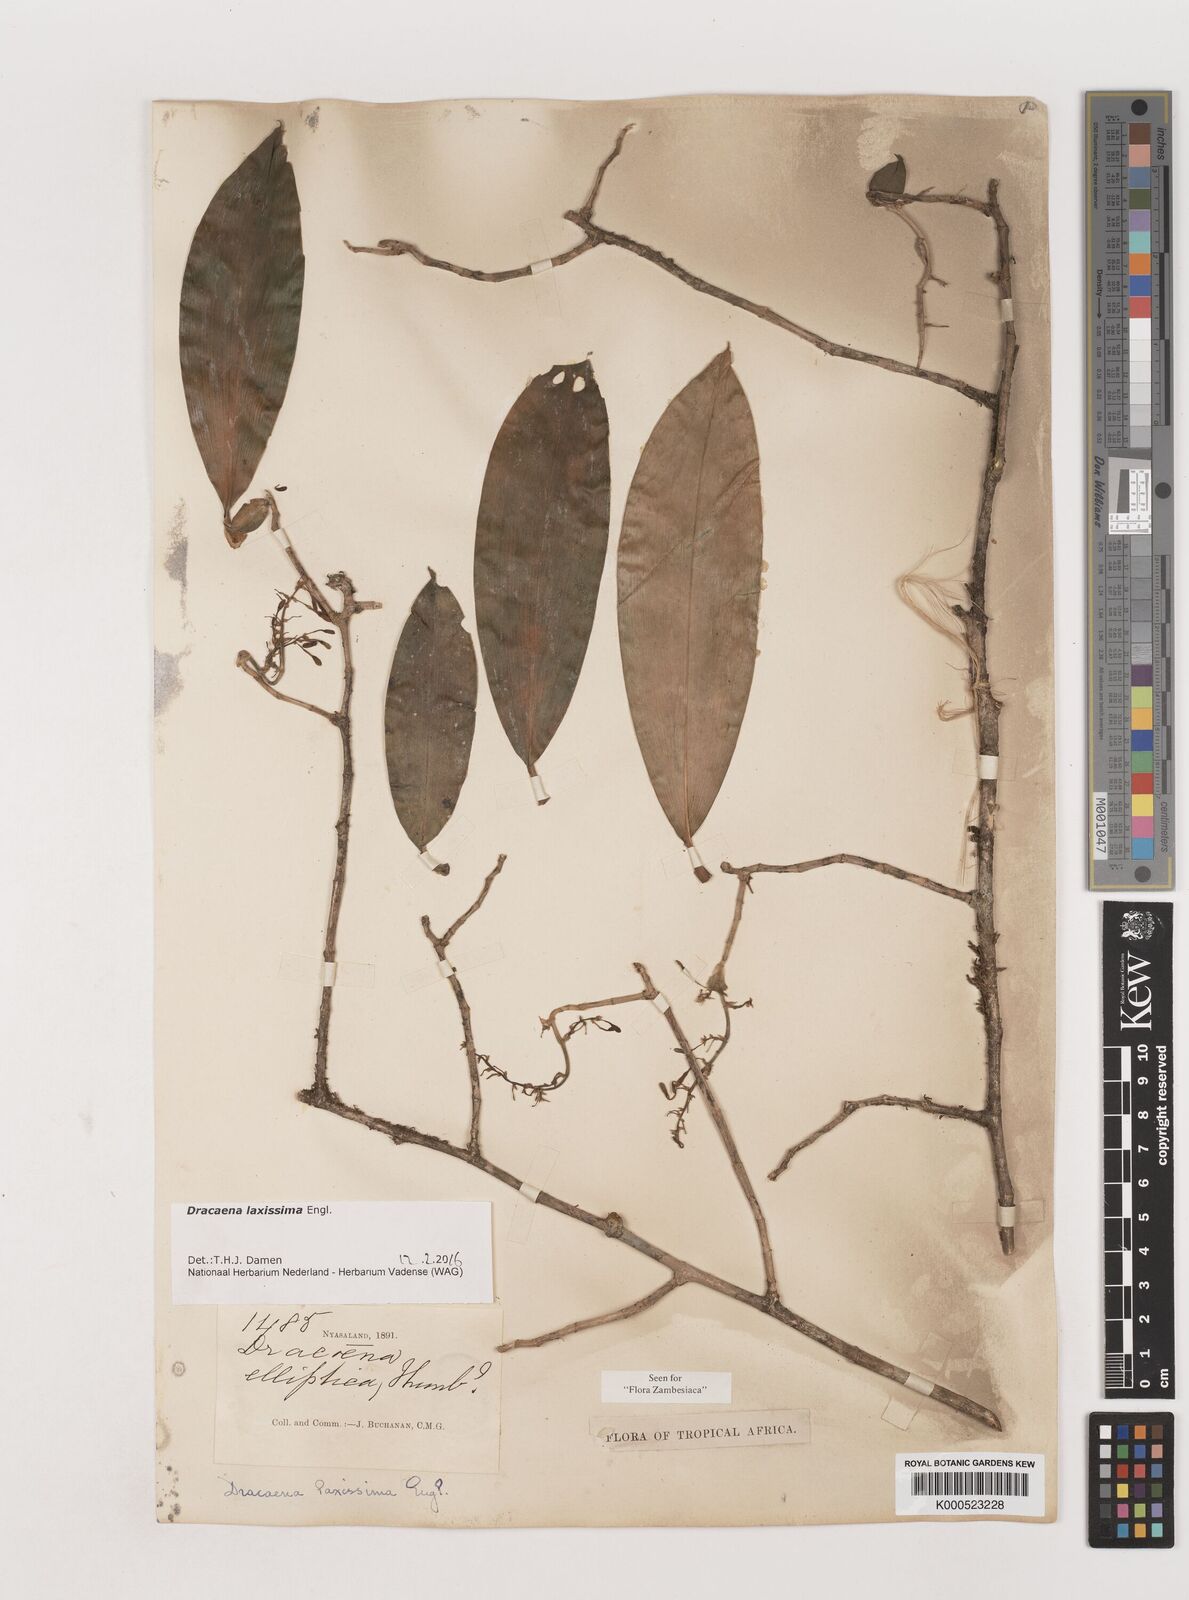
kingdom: Plantae
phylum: Tracheophyta
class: Liliopsida
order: Asparagales
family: Asparagaceae
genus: Dracaena
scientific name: Dracaena laxissima
